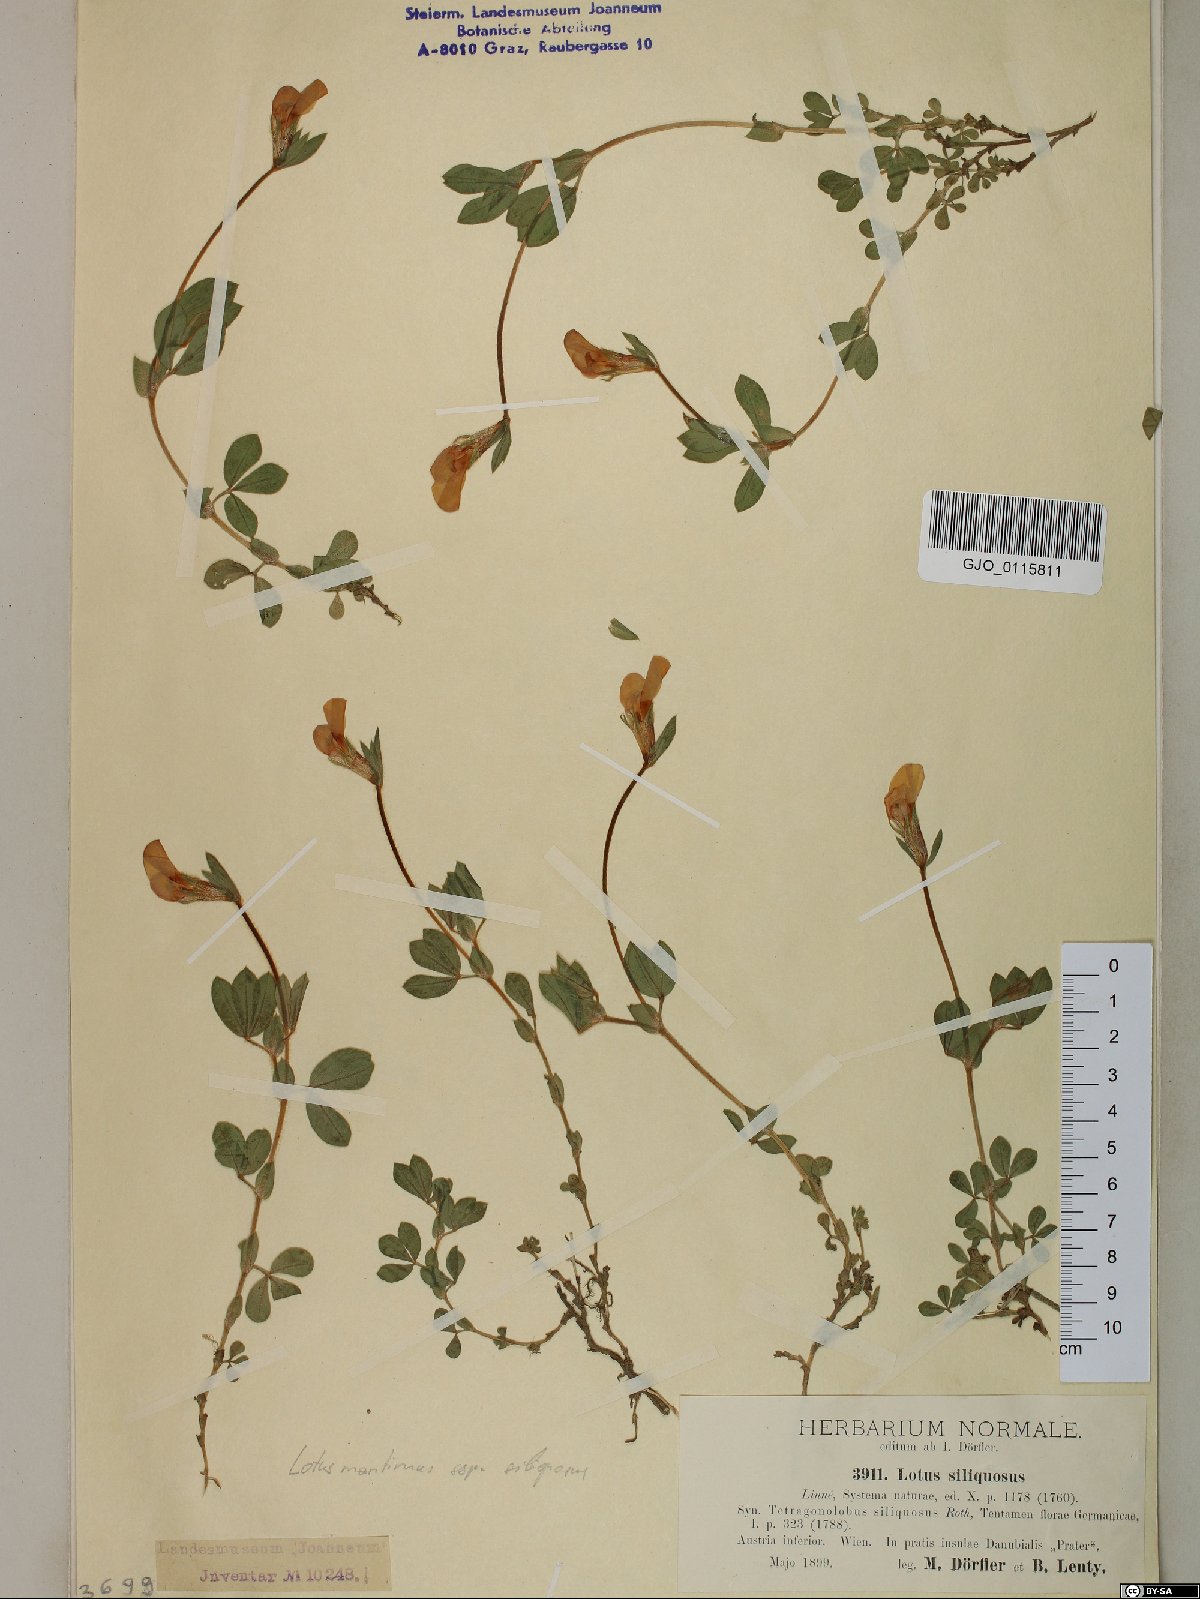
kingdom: Plantae
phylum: Tracheophyta
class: Magnoliopsida
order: Fabales
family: Fabaceae
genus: Lathyrus
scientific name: Lathyrus inconspicuus
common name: Inconspicuous pea
